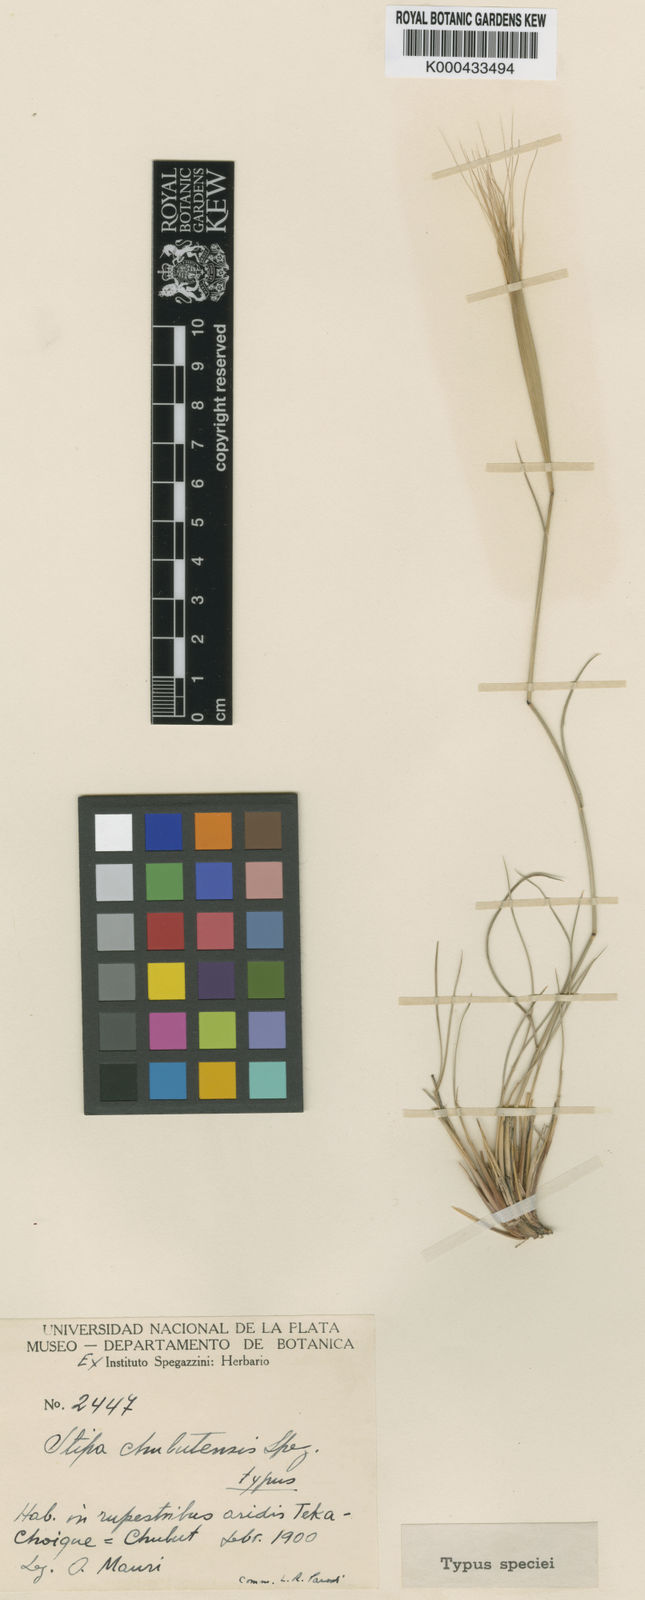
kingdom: Plantae
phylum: Tracheophyta
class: Liliopsida
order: Poales
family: Poaceae
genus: Stipa
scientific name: Stipa
